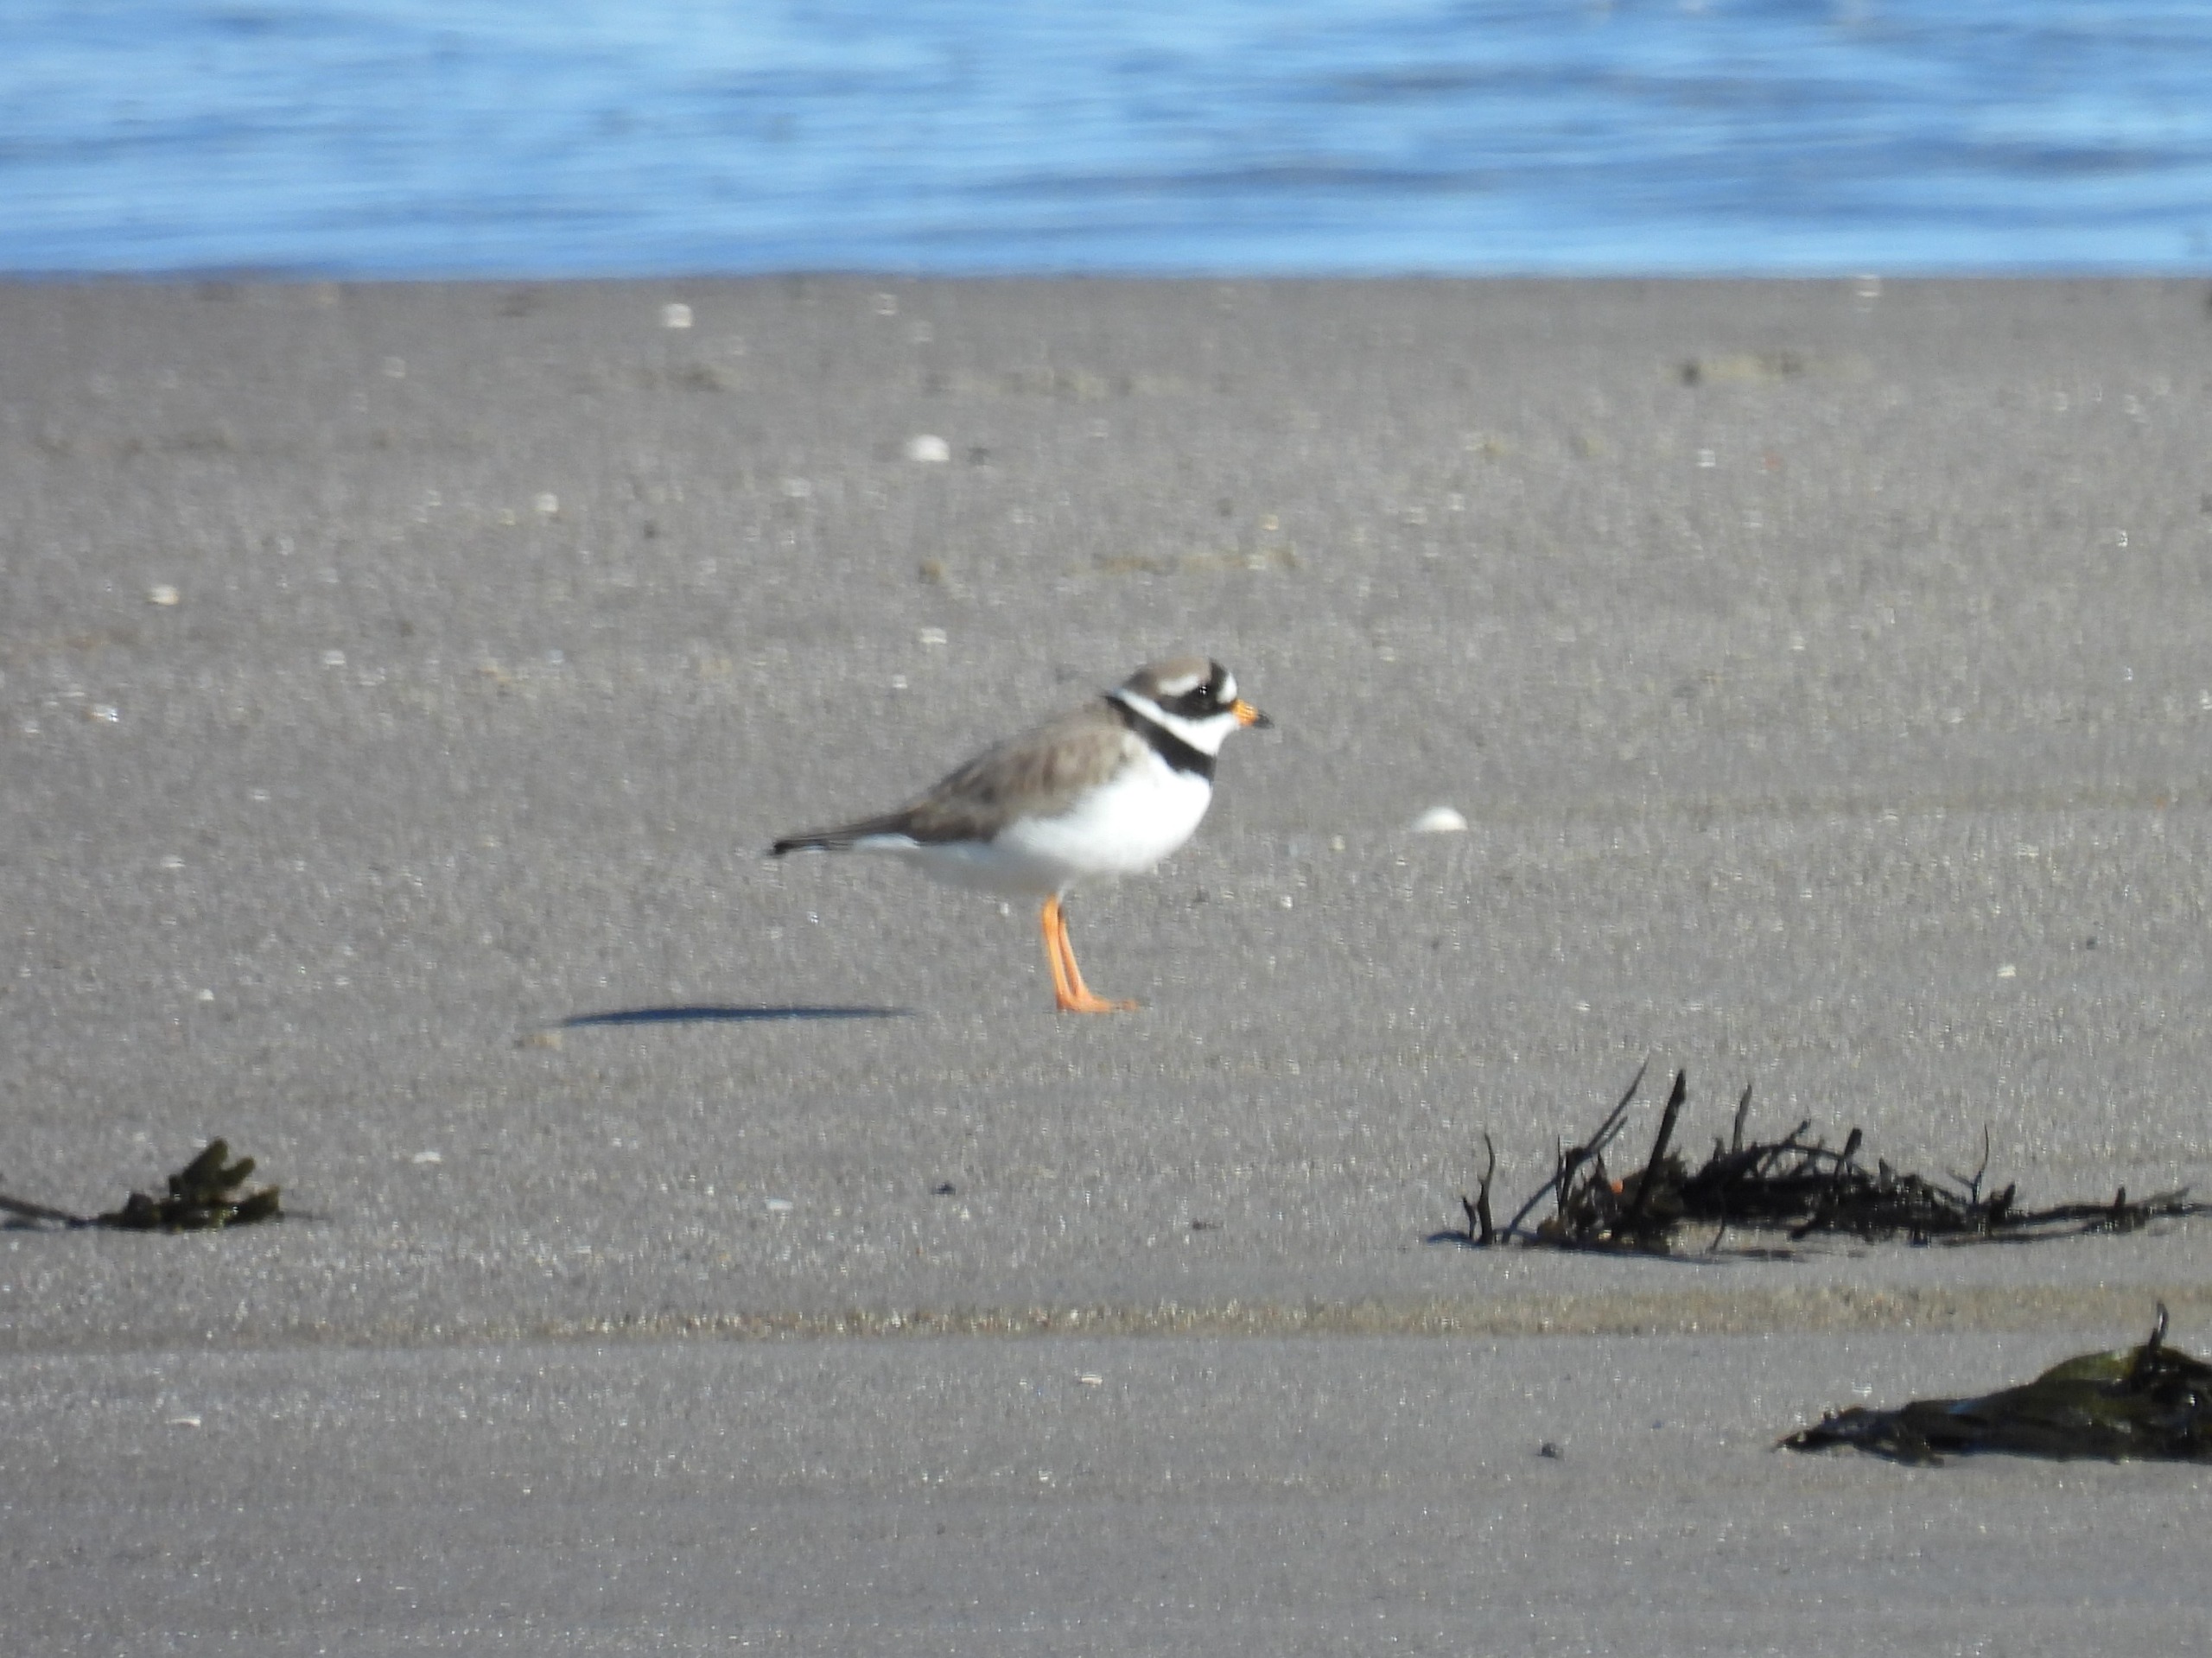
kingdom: Animalia
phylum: Chordata
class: Aves
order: Charadriiformes
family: Charadriidae
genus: Charadrius
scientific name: Charadrius hiaticula
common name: Stor præstekrave
